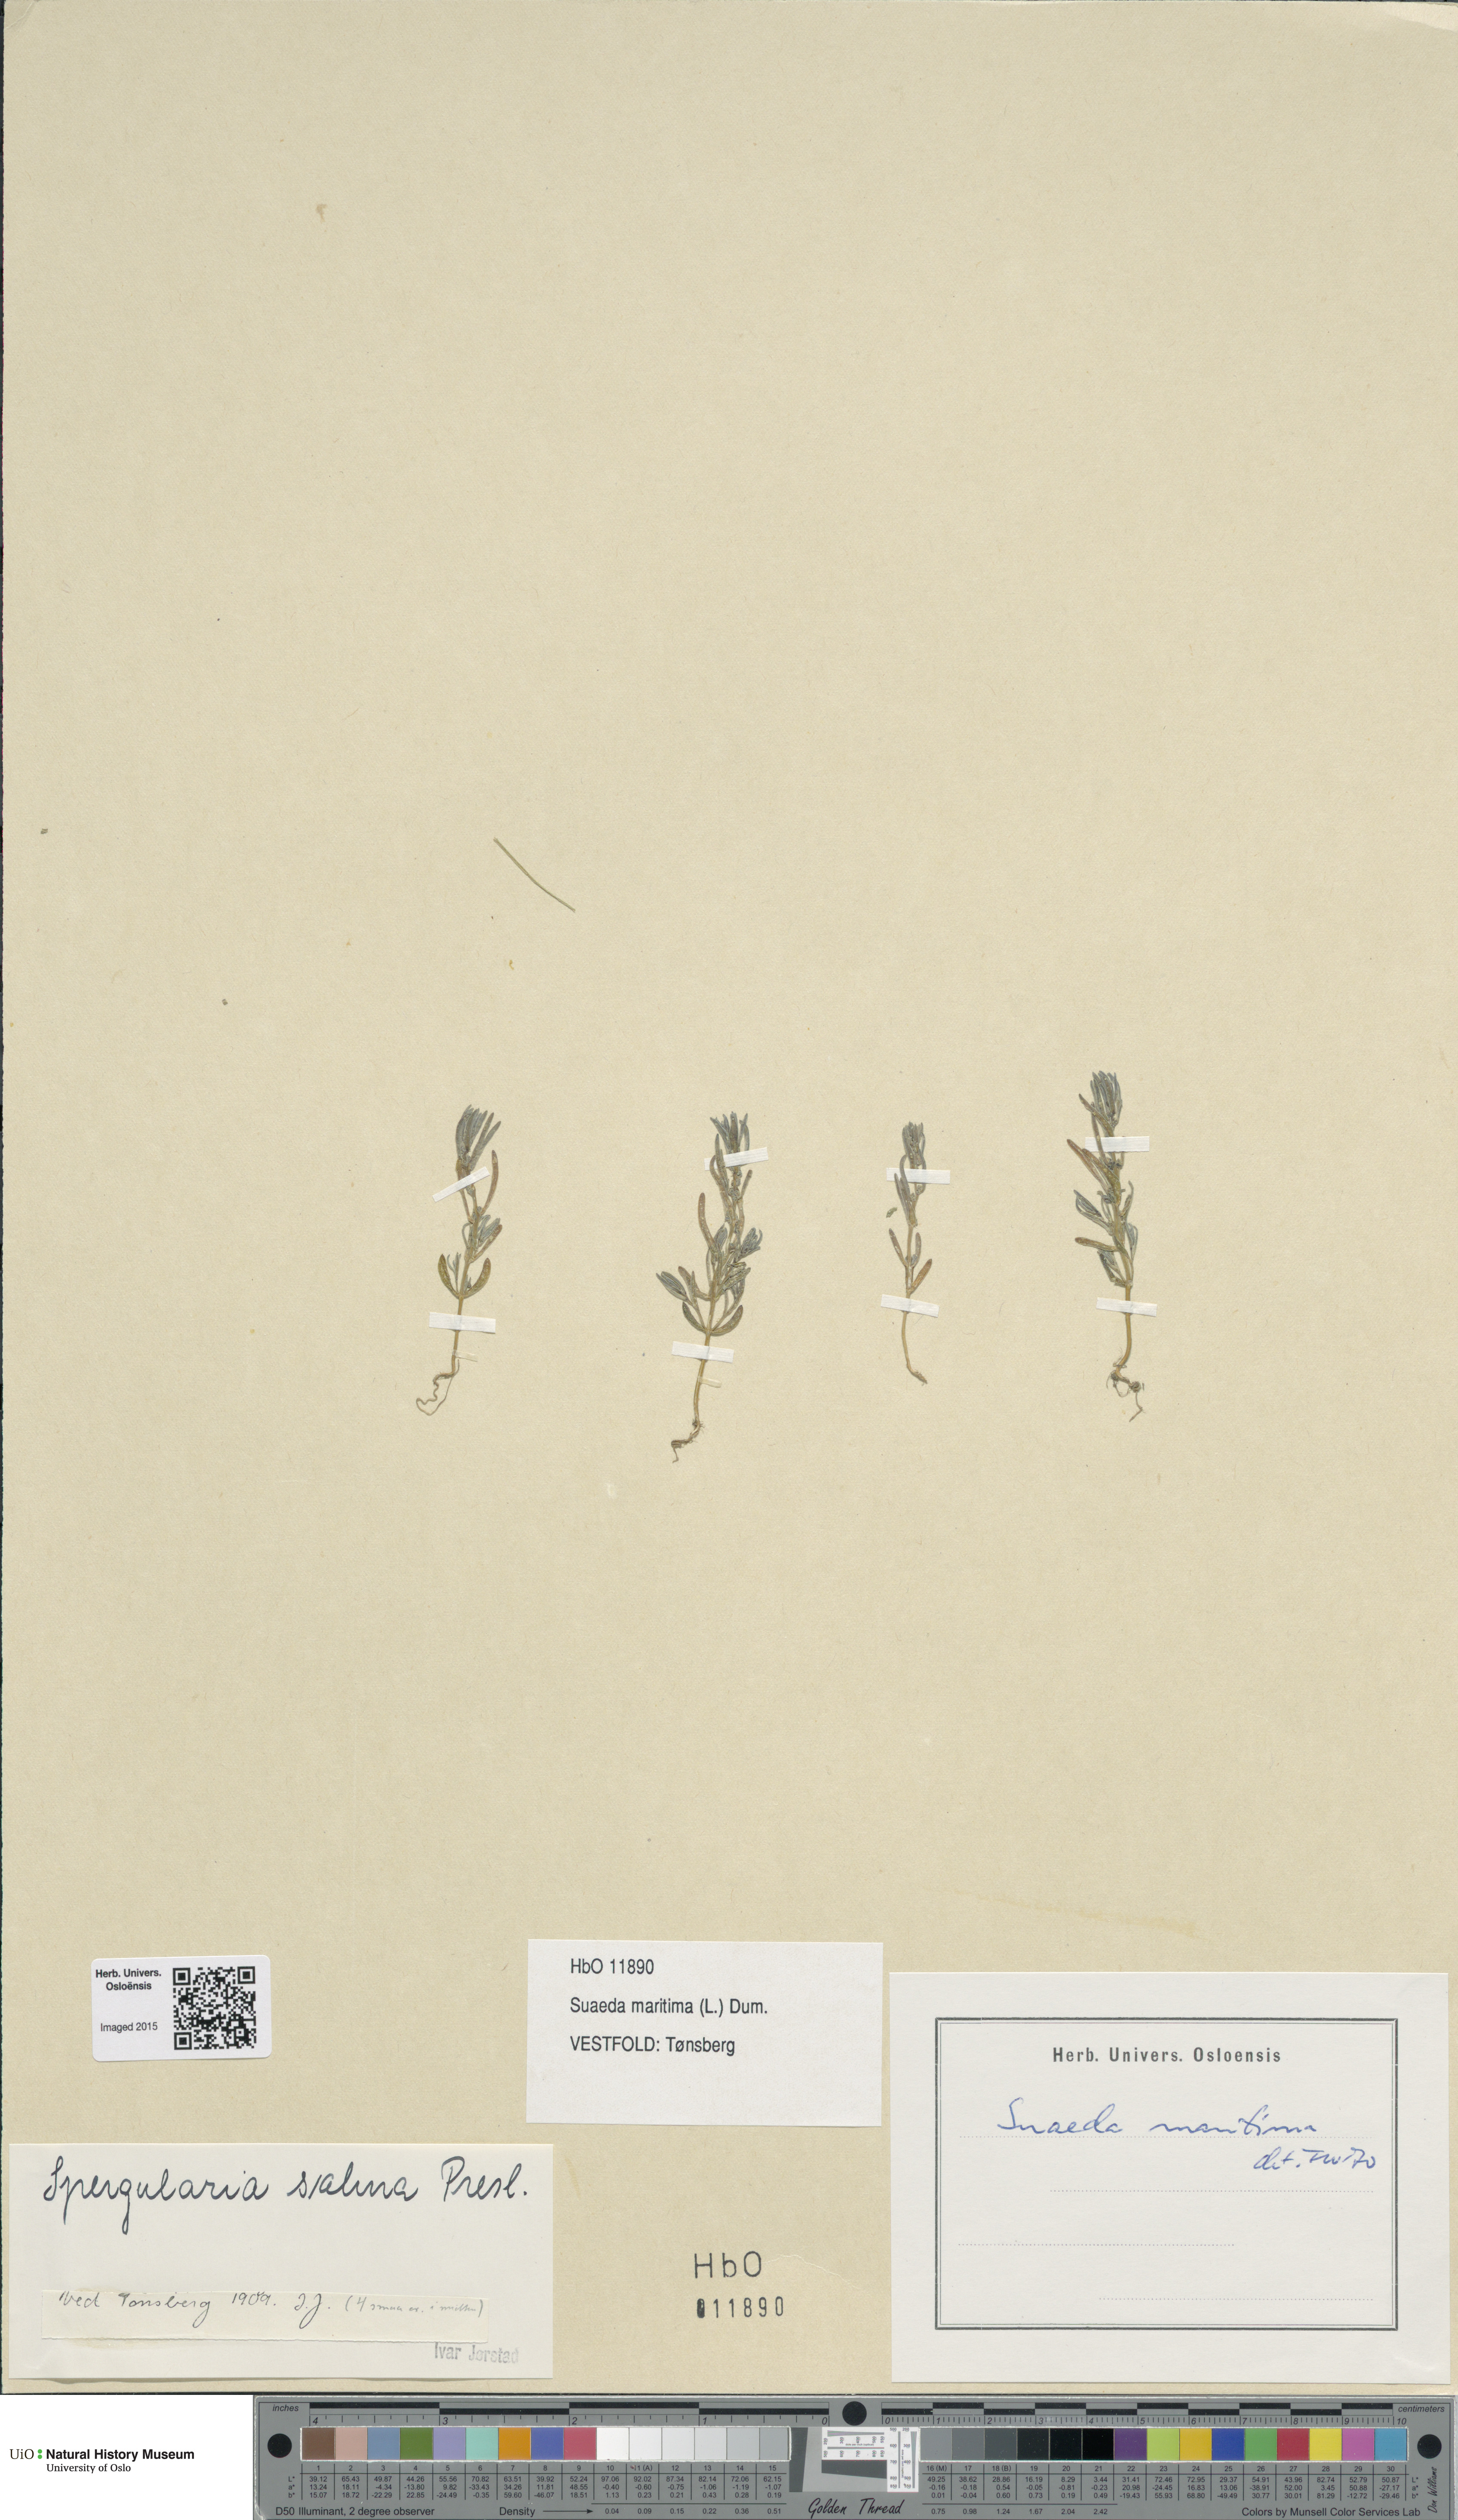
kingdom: Plantae
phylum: Tracheophyta
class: Magnoliopsida
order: Caryophyllales
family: Amaranthaceae
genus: Suaeda
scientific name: Suaeda maritima
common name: Annual sea-blite
